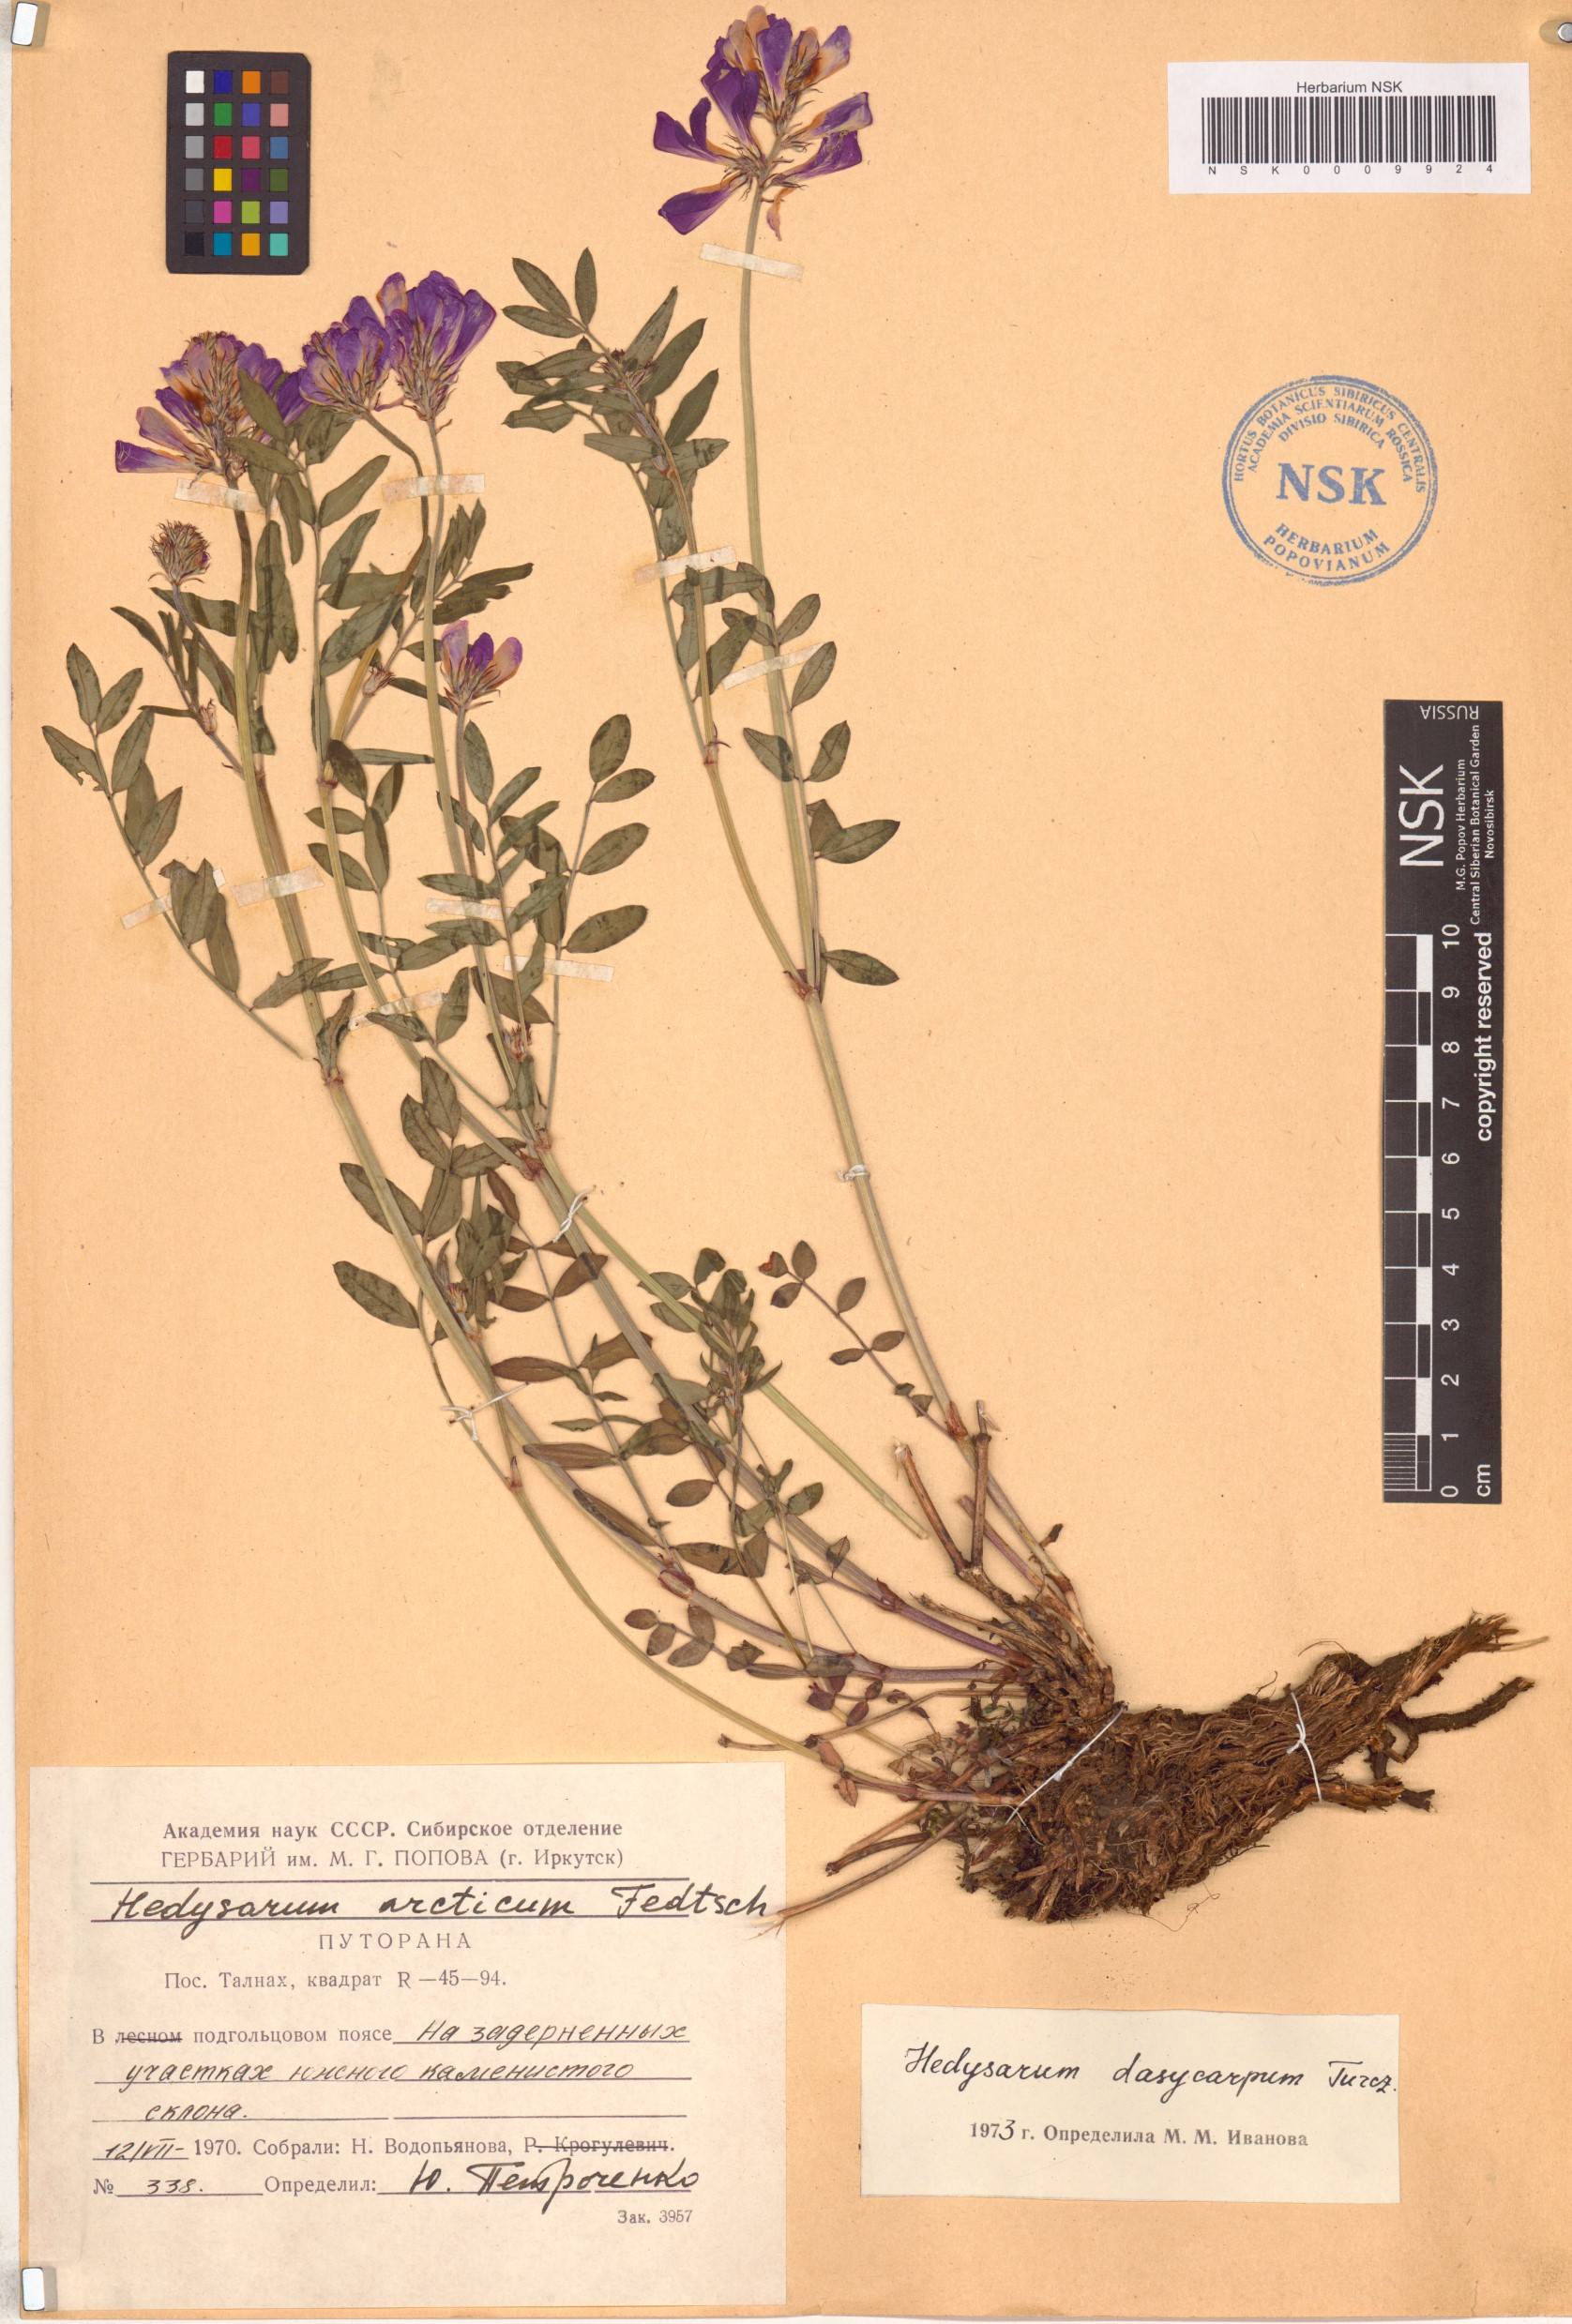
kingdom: Plantae
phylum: Tracheophyta
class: Magnoliopsida
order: Fabales
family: Fabaceae
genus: Hedysarum
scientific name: Hedysarum dasycarpum
